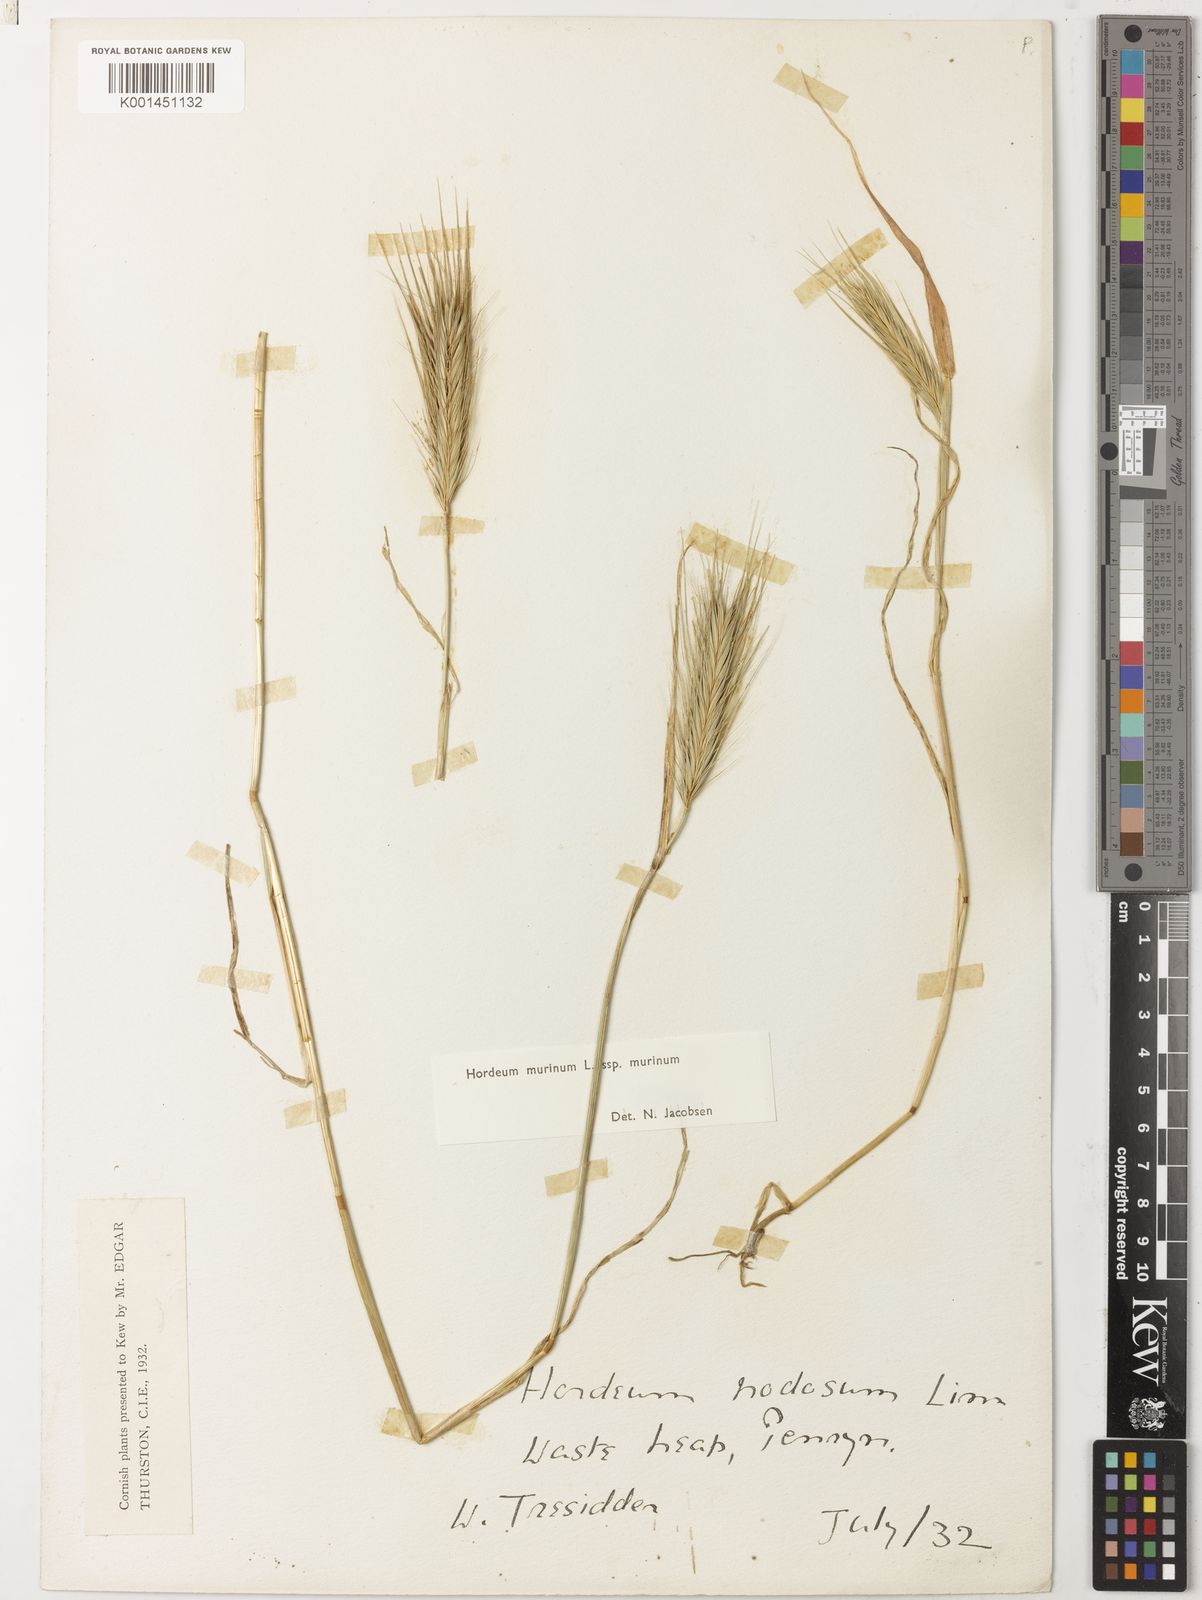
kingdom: Plantae
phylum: Tracheophyta
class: Liliopsida
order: Poales
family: Poaceae
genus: Hordeum
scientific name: Hordeum murinum
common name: Wall barley
